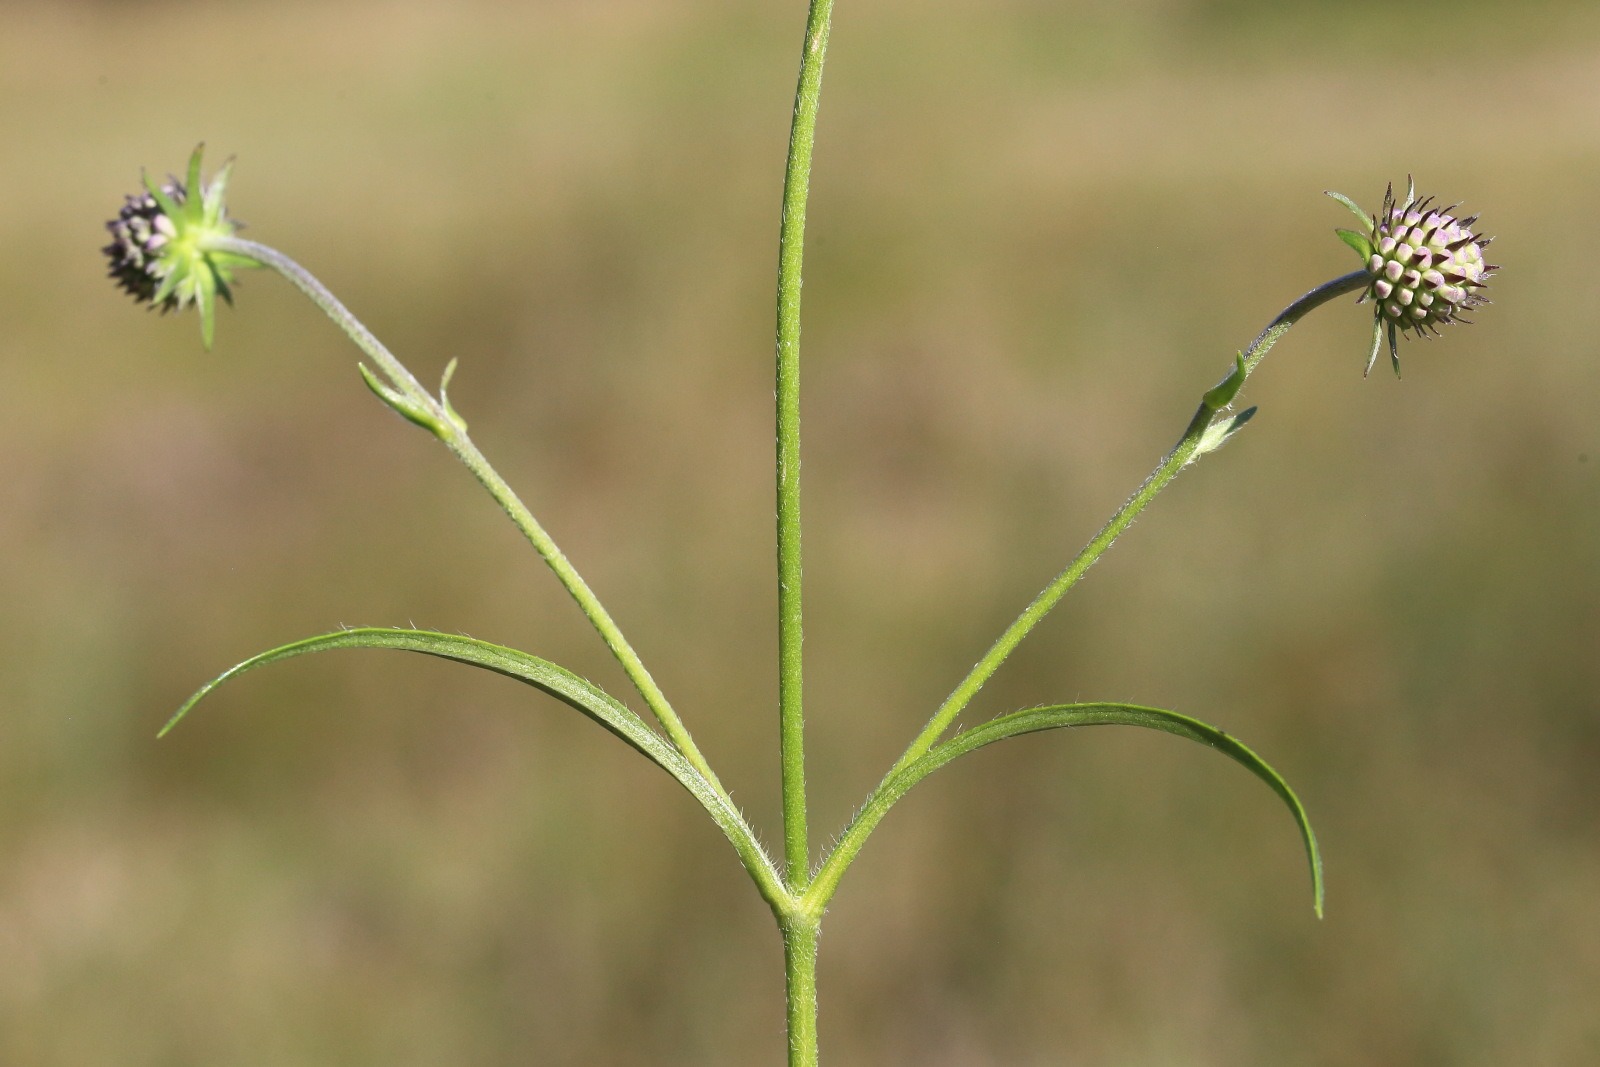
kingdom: Plantae
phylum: Tracheophyta
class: Magnoliopsida
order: Dipsacales
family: Caprifoliaceae
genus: Succisa
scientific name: Succisa pratensis
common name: Djævelsbid
